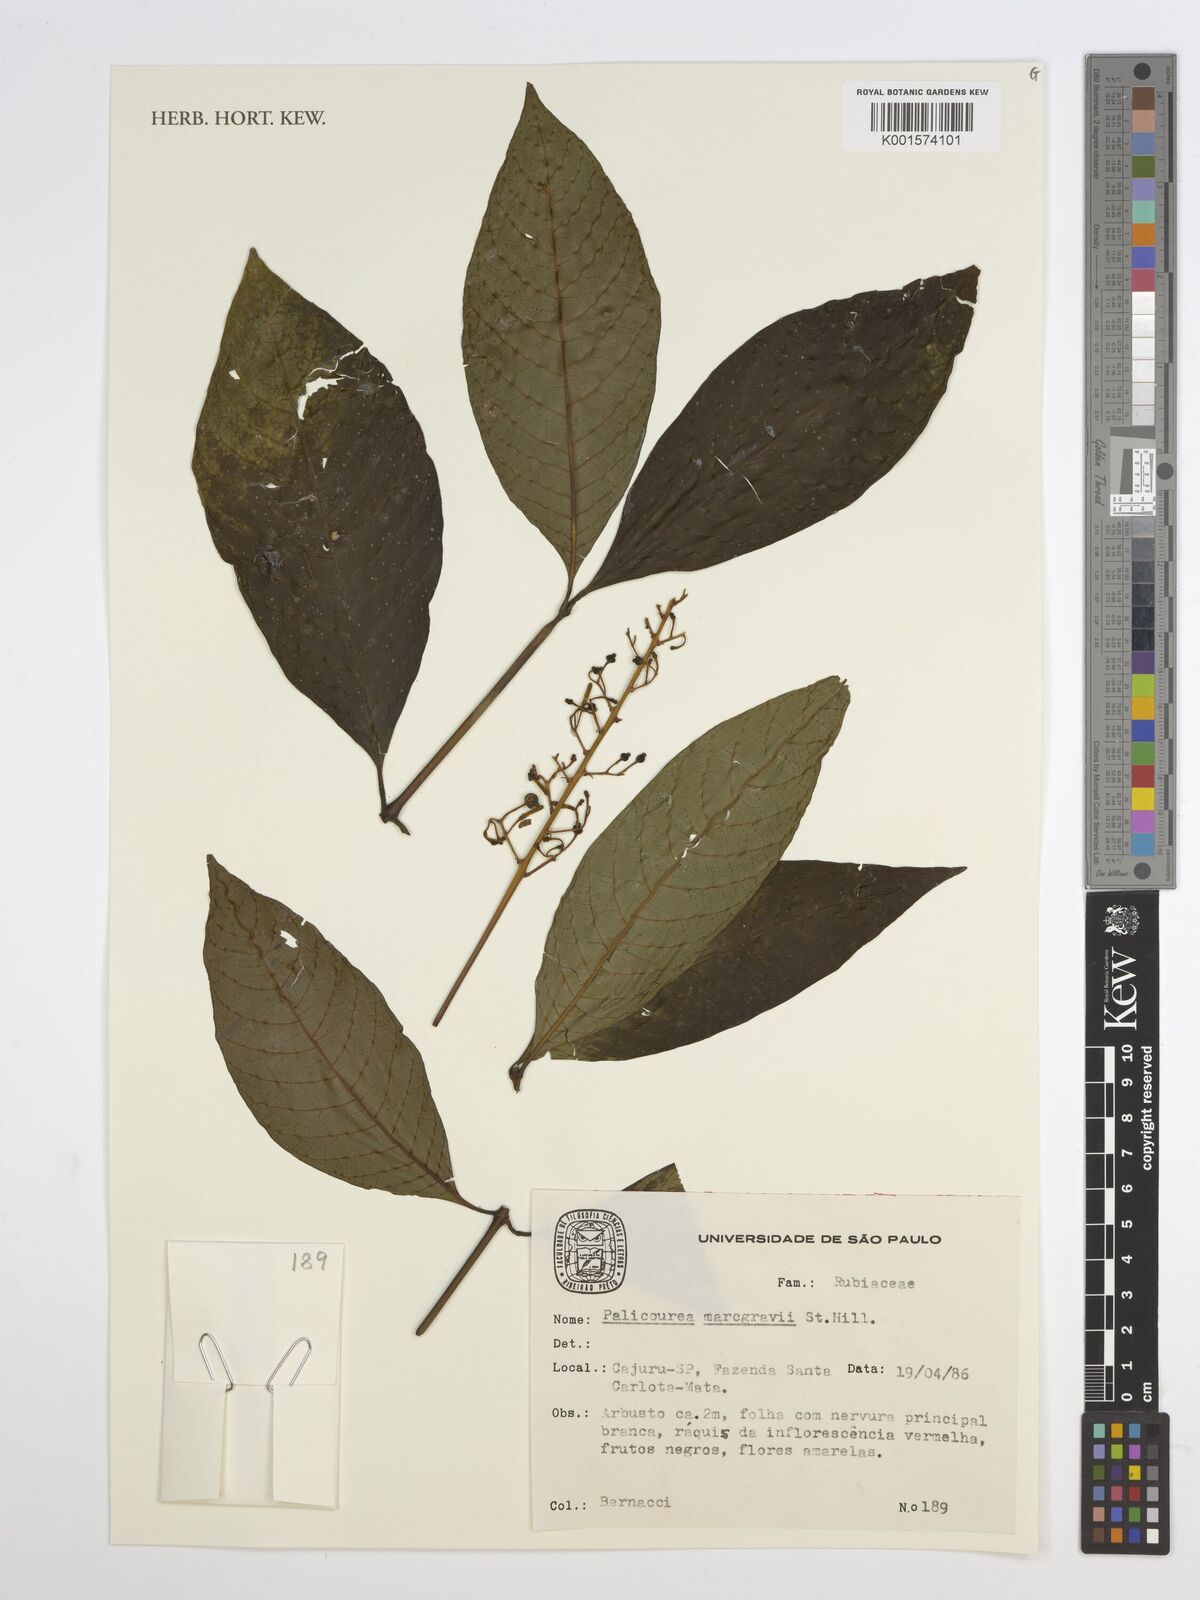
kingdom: Plantae
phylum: Tracheophyta
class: Magnoliopsida
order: Gentianales
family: Rubiaceae
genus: Palicourea
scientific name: Palicourea marcgravii
